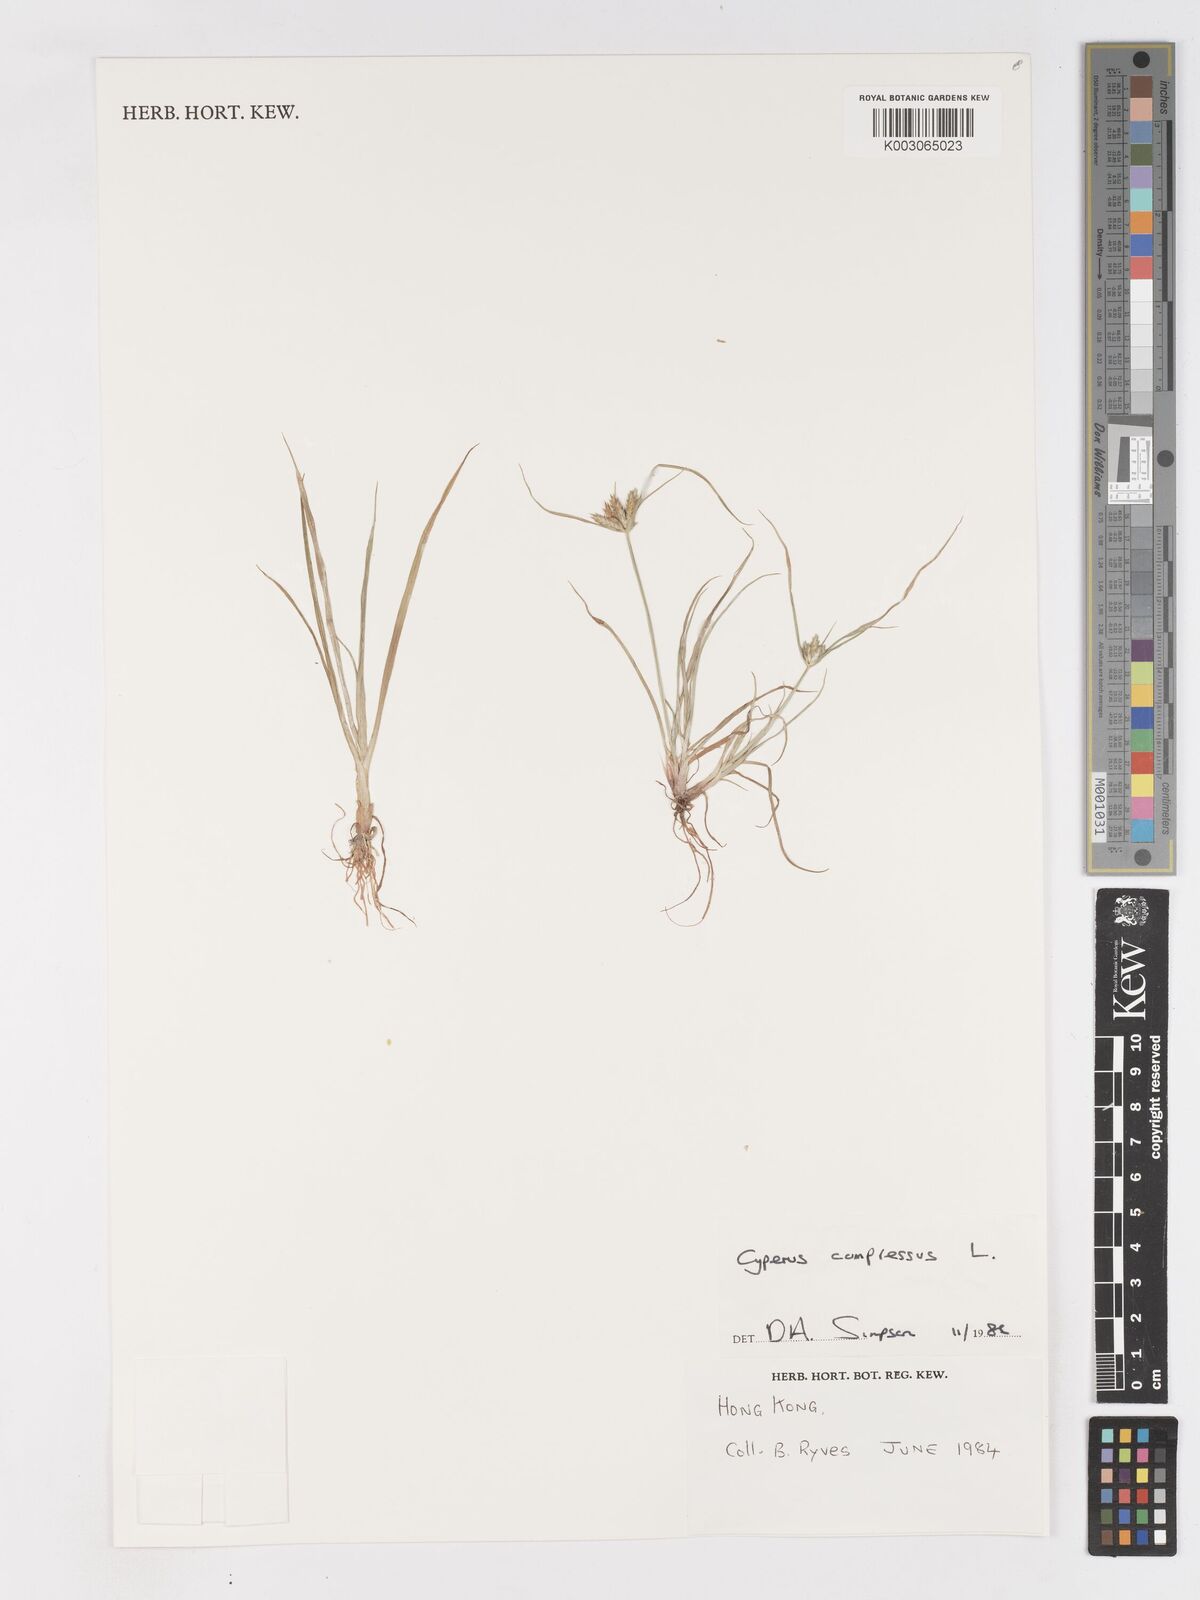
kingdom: Plantae
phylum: Tracheophyta
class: Liliopsida
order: Poales
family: Cyperaceae
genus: Cyperus
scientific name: Cyperus compressus
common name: Poorland flatsedge
